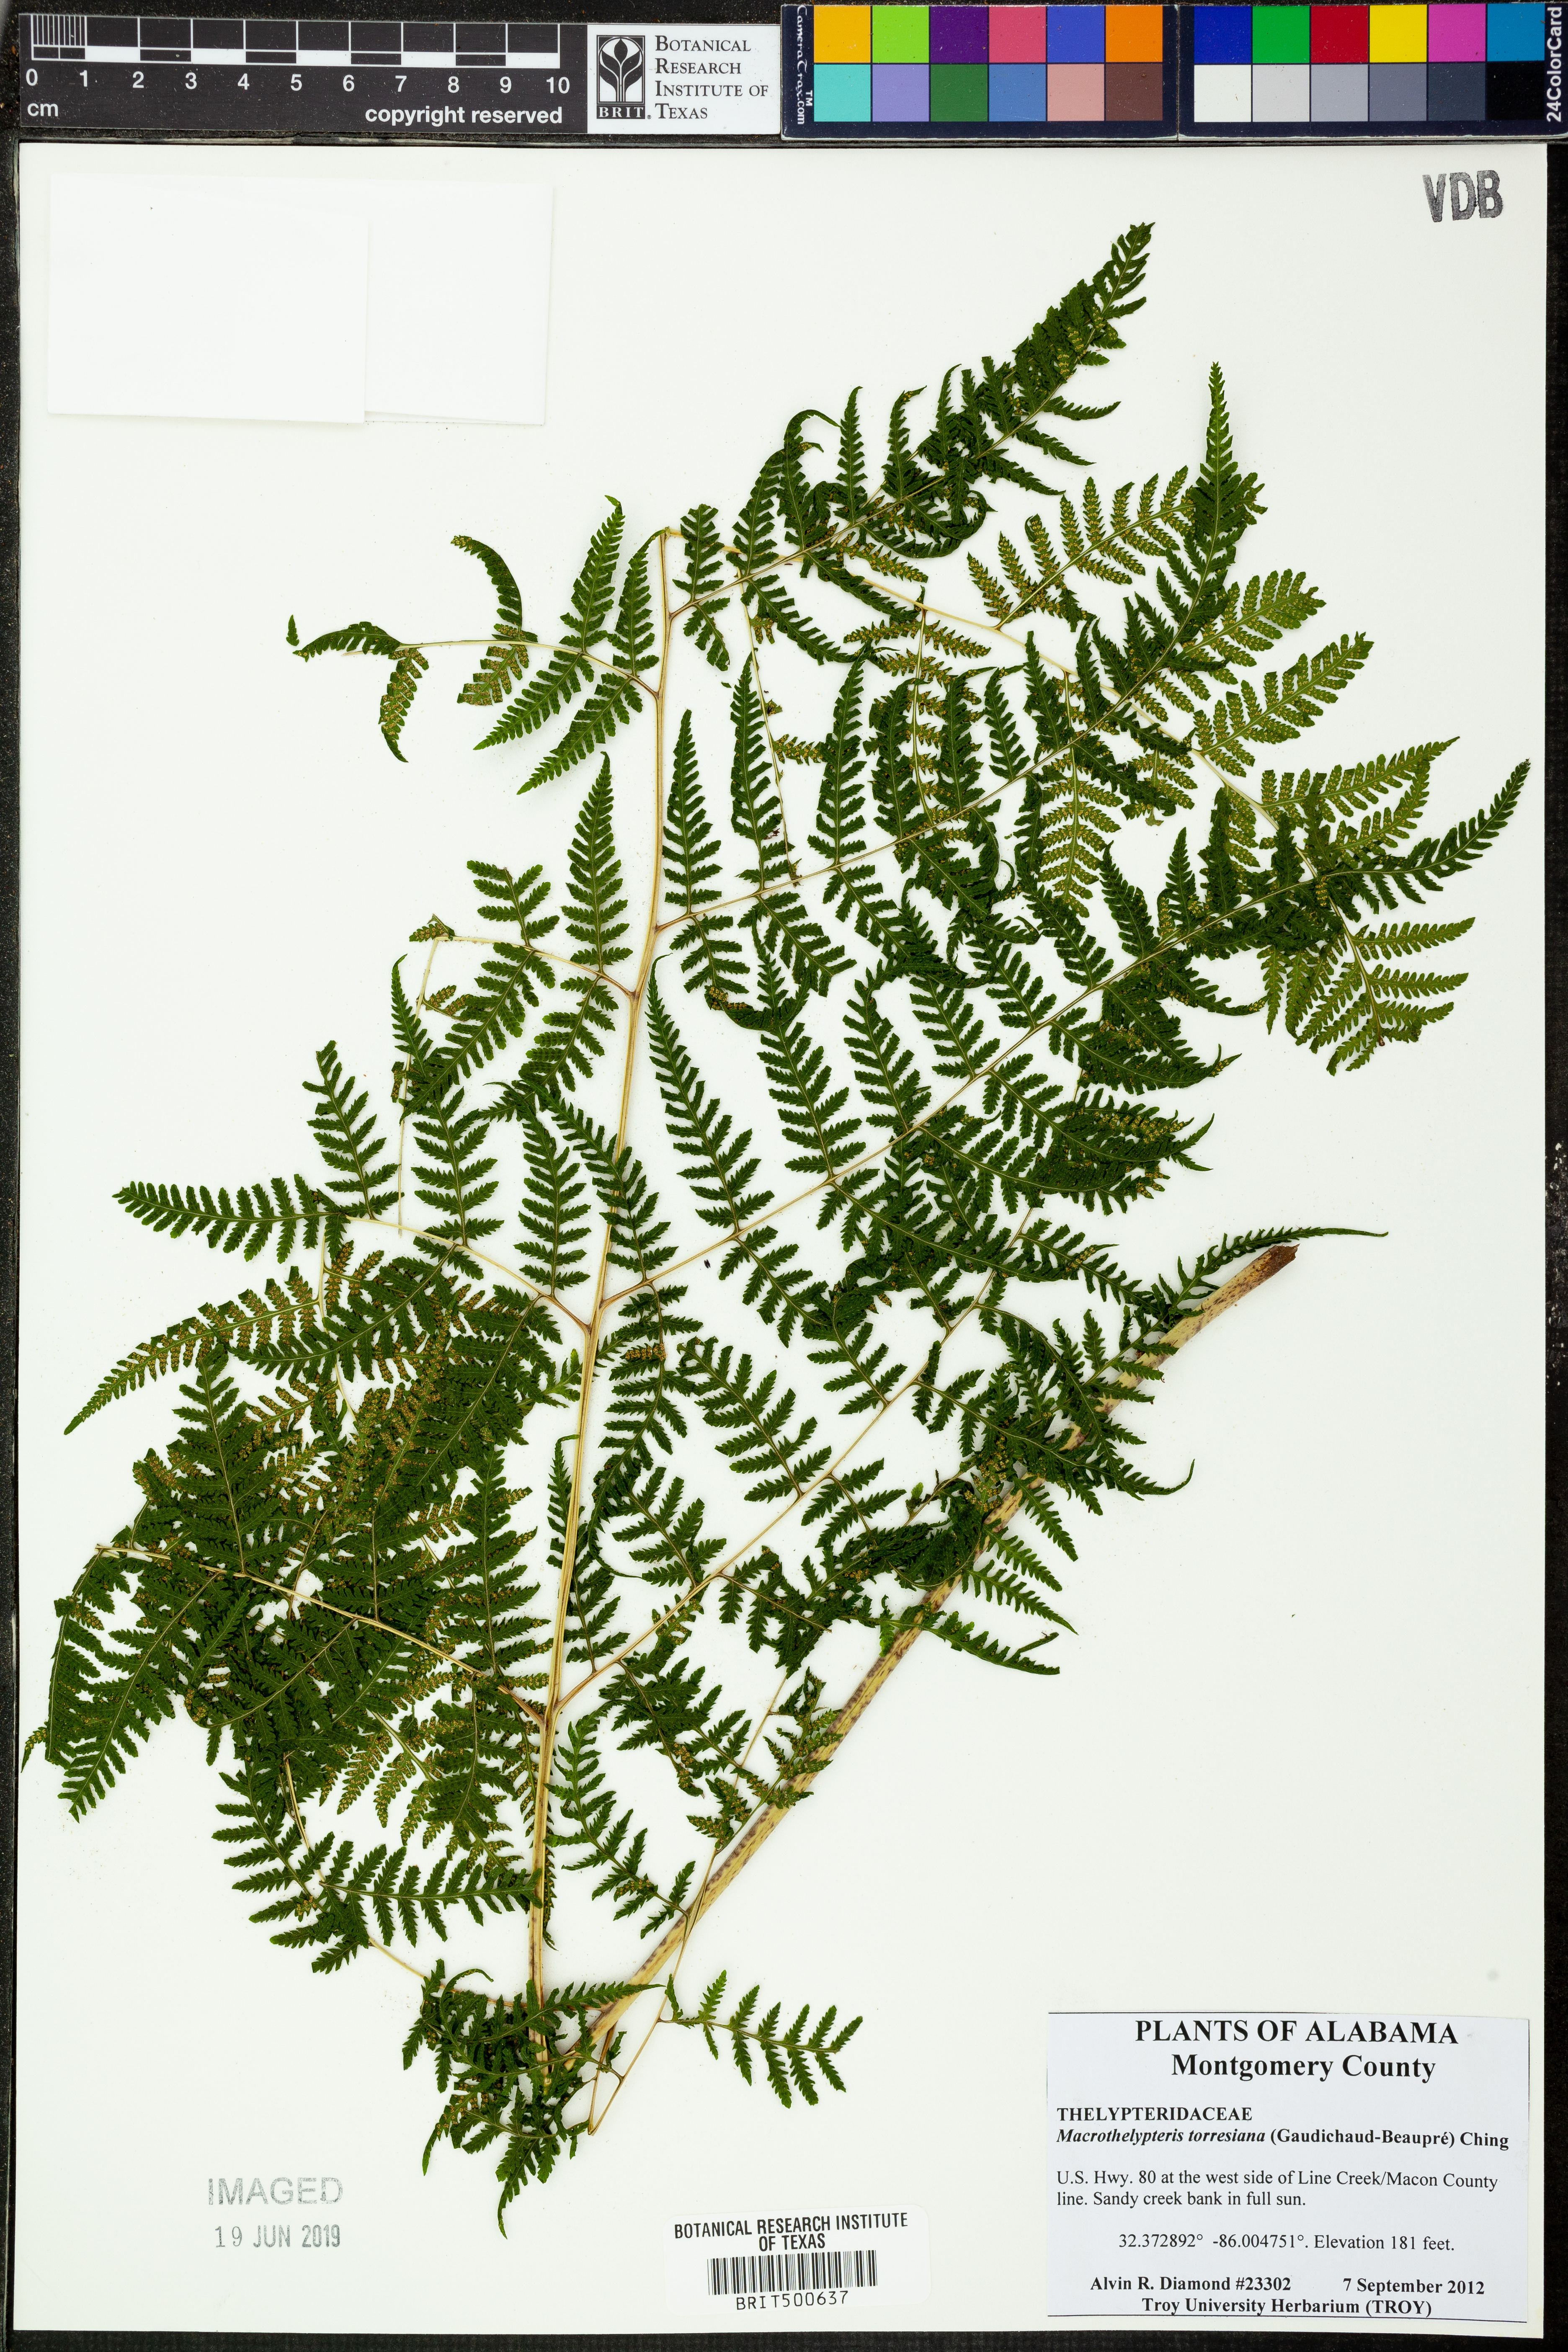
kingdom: Plantae
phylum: Tracheophyta
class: Polypodiopsida
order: Polypodiales
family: Thelypteridaceae
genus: Macrothelypteris
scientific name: Macrothelypteris torresiana
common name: Swordfern
